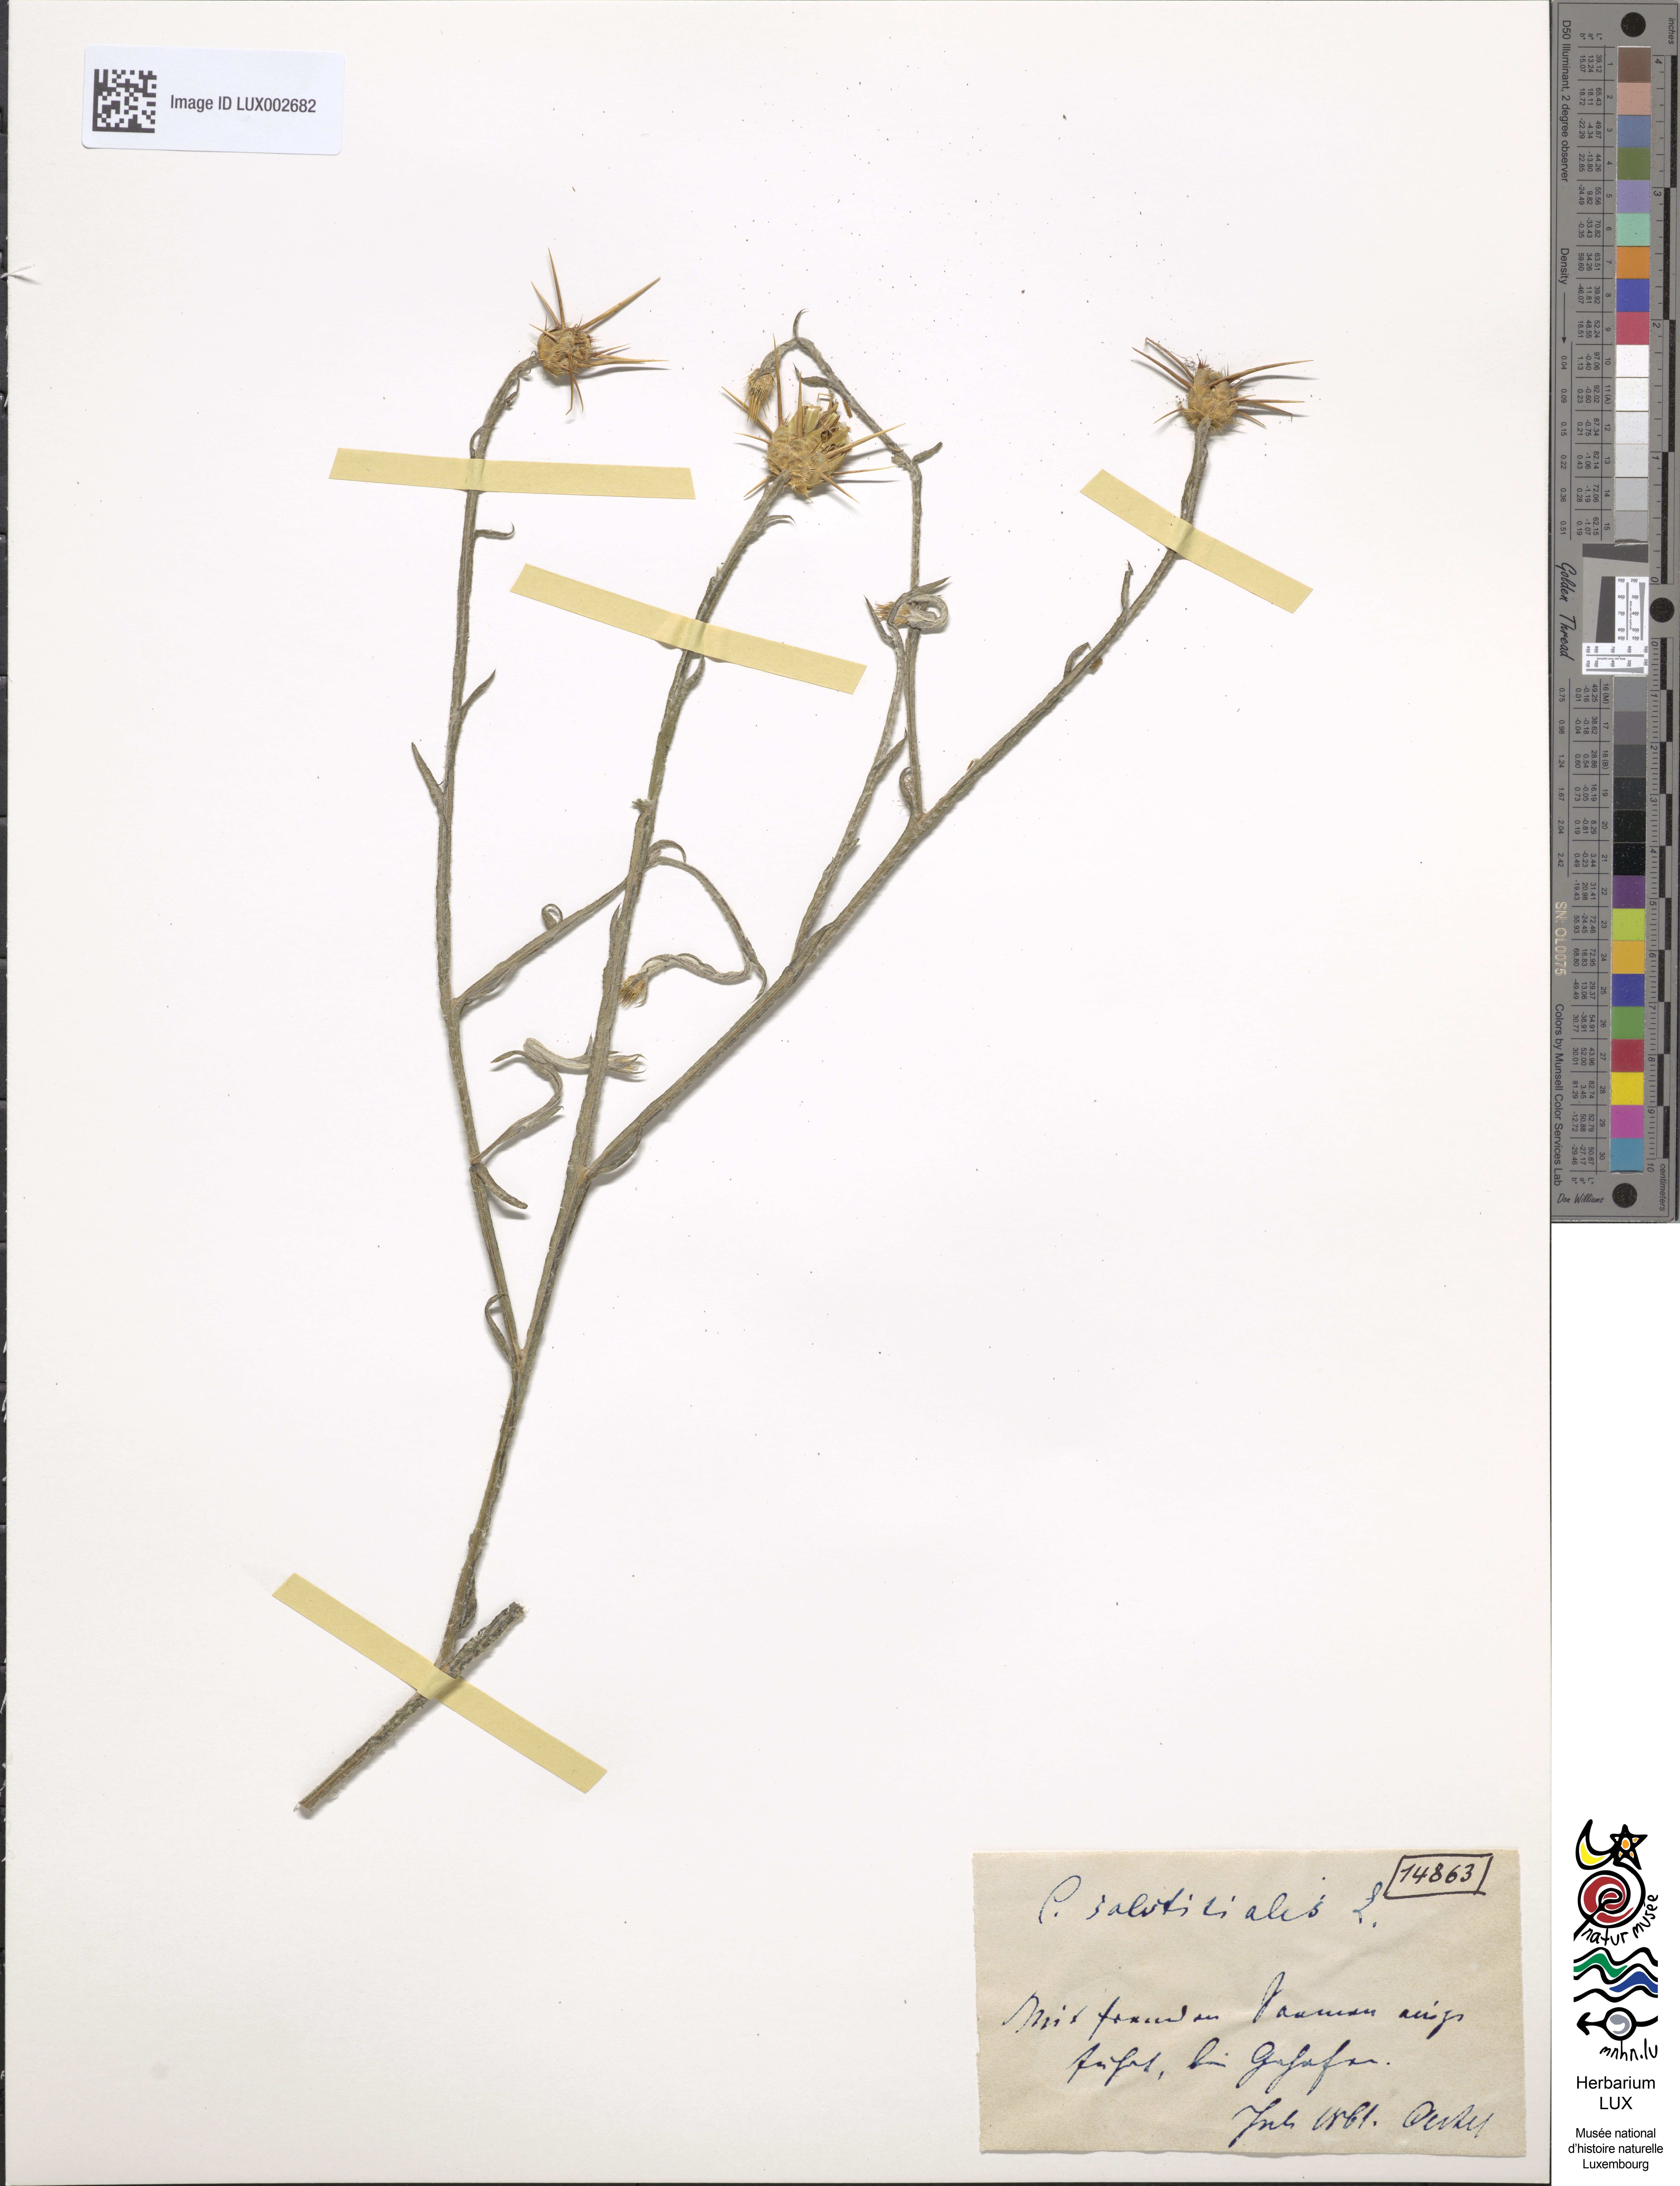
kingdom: Plantae
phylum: Tracheophyta
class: Magnoliopsida
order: Asterales
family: Asteraceae
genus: Centaurea
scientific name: Centaurea solstitialis
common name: Yellow star-thistle
